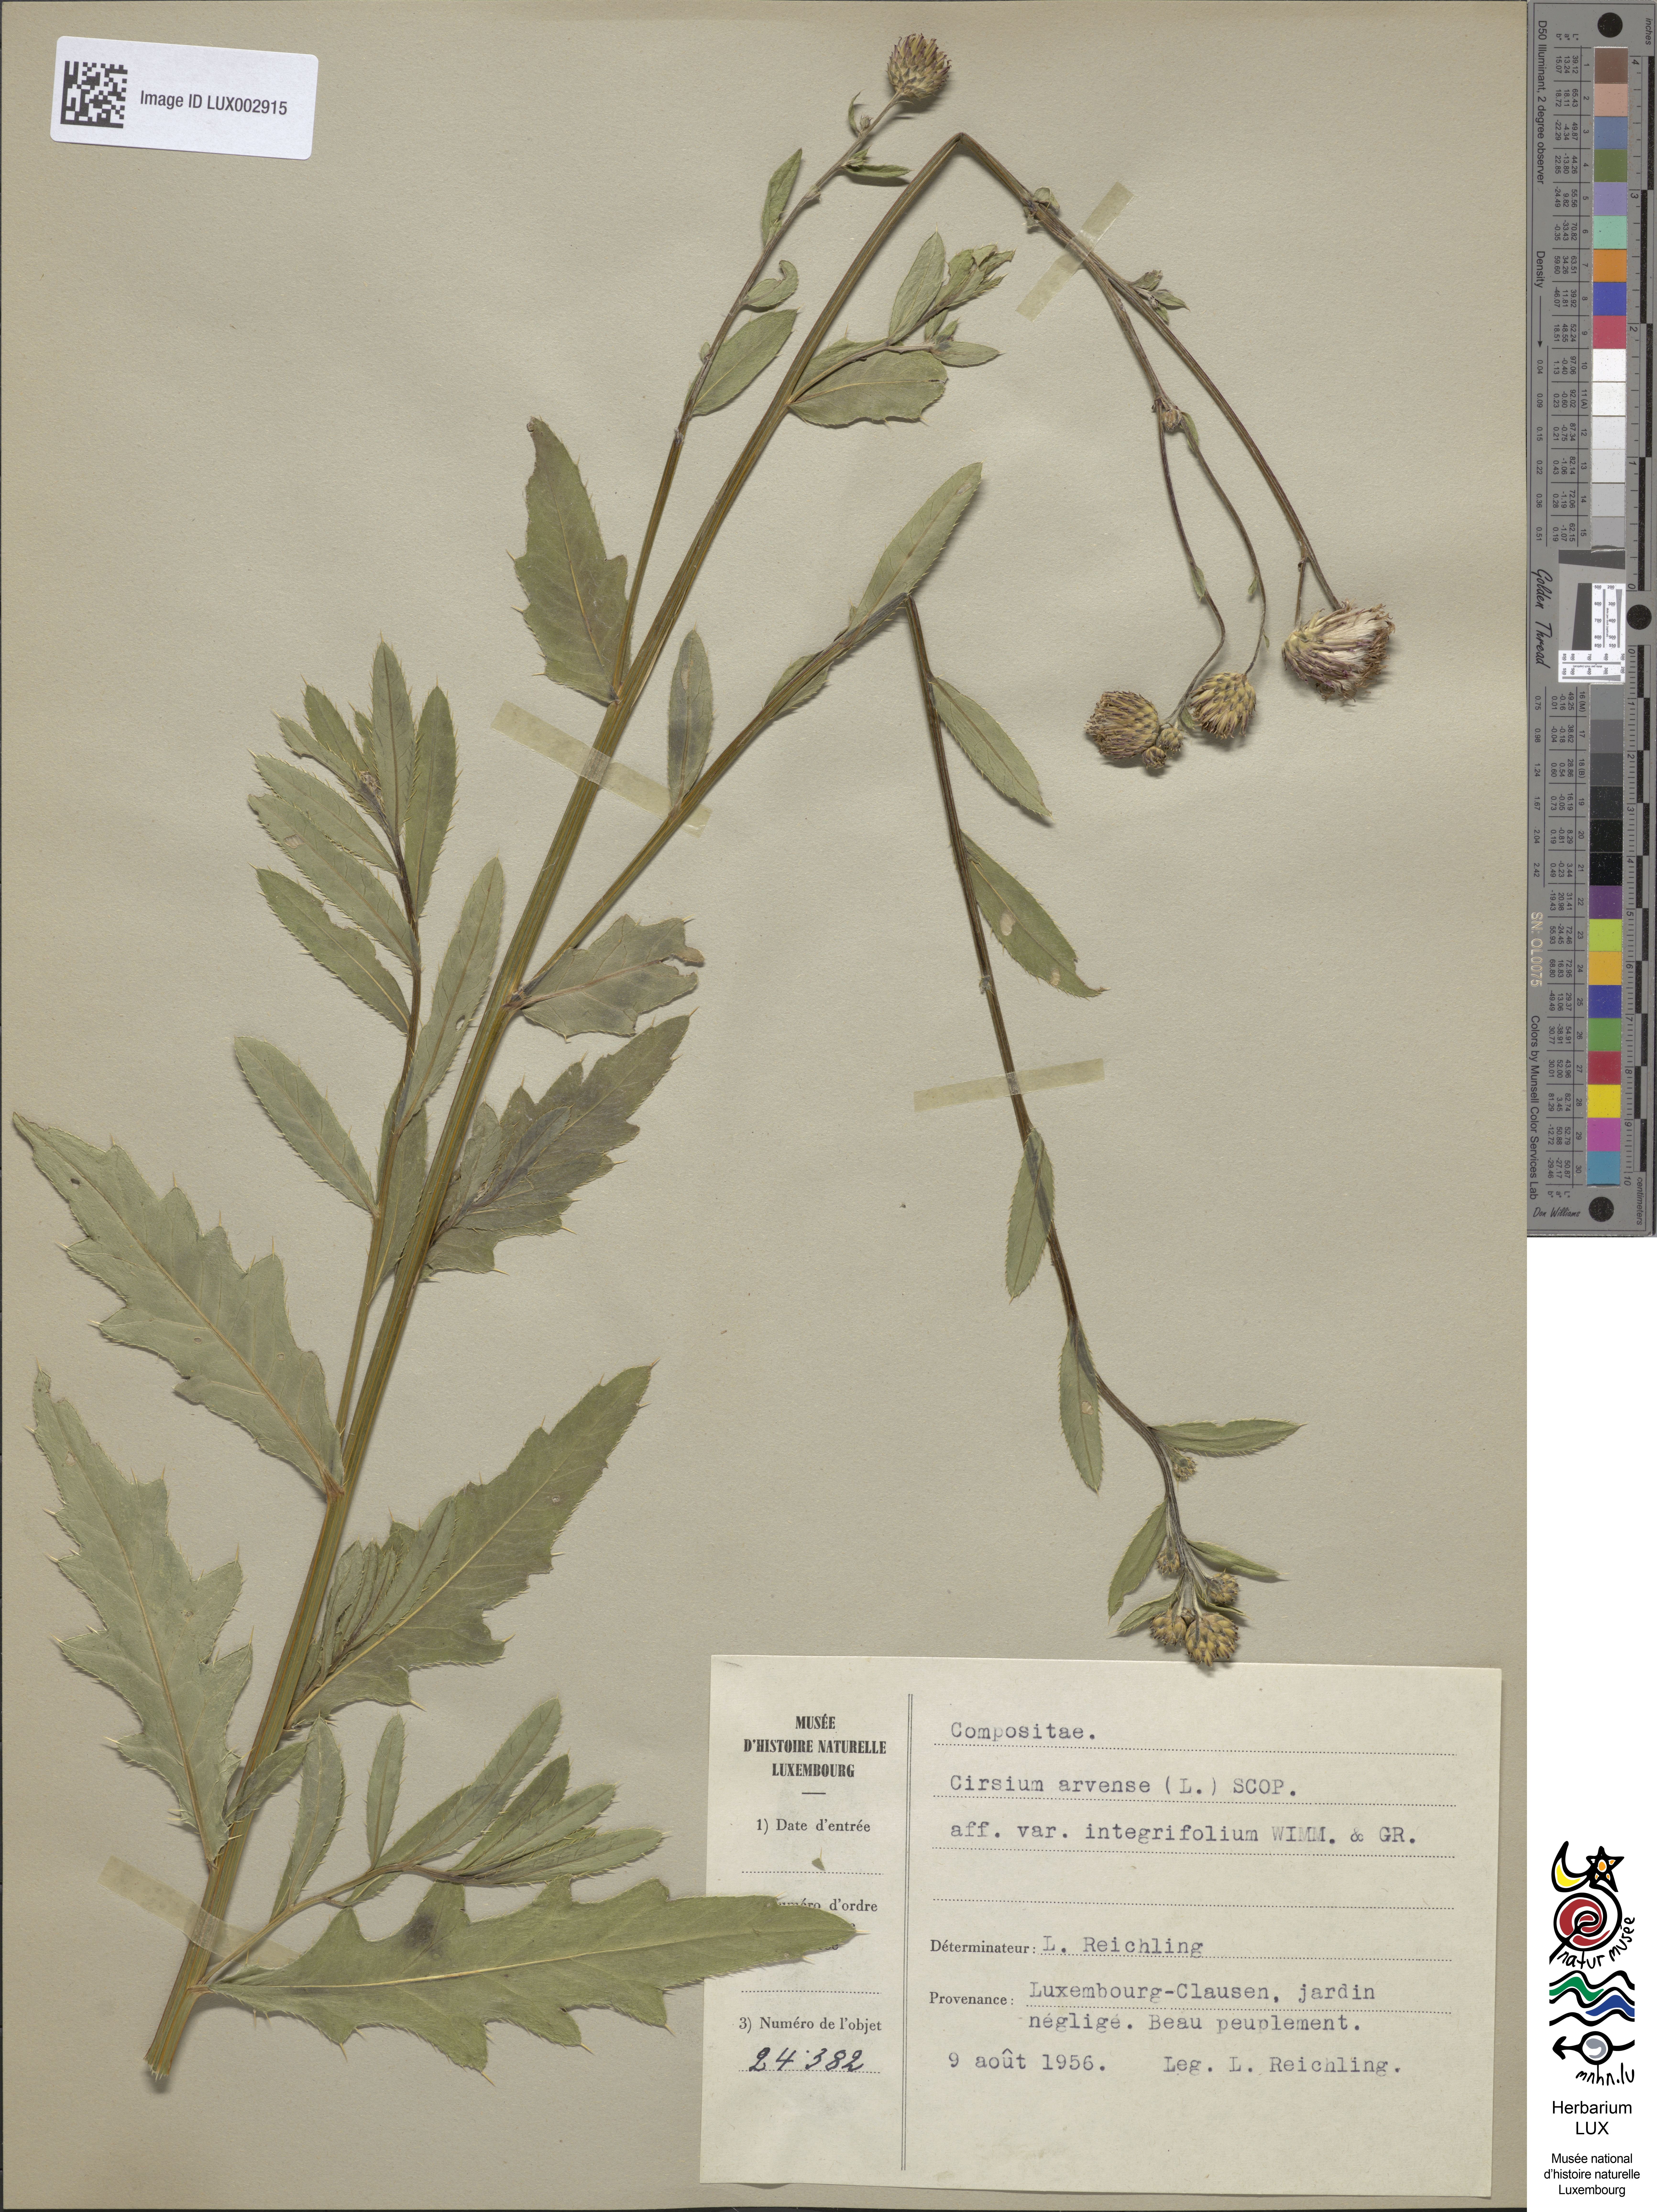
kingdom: Plantae
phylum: Tracheophyta
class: Magnoliopsida
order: Asterales
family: Asteraceae
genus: Cirsium
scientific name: Cirsium arvense
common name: Creeping thistle
